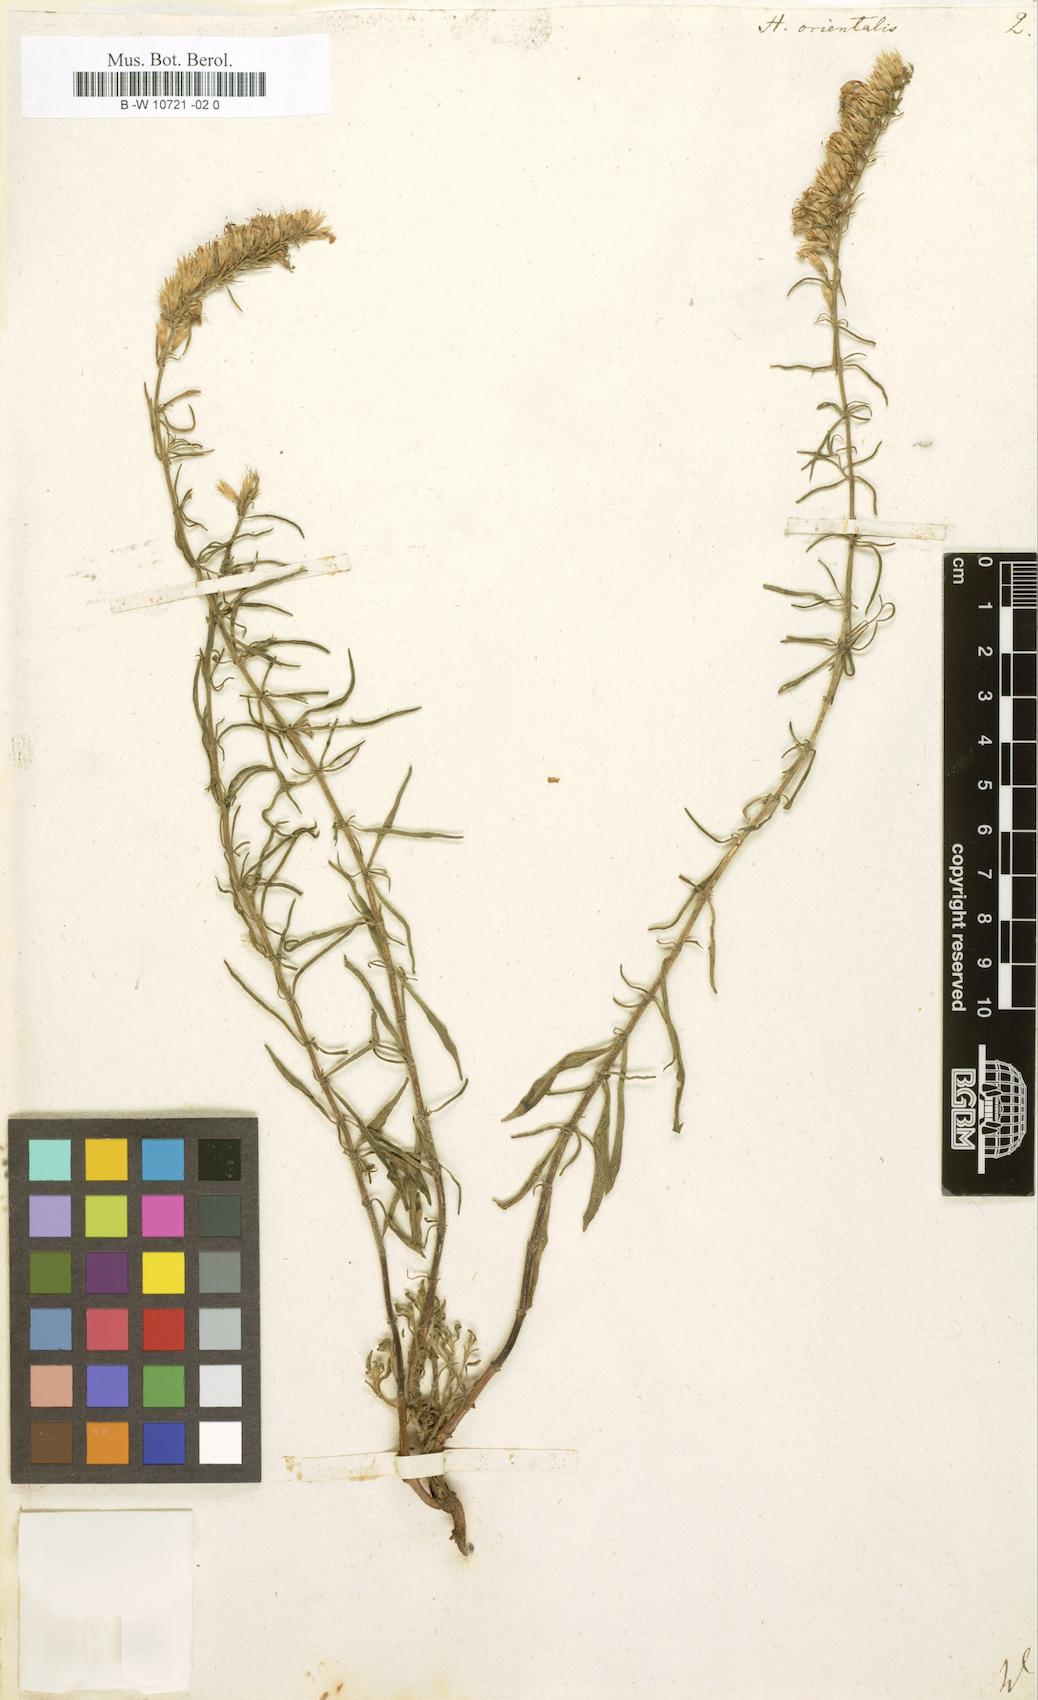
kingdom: Plantae
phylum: Tracheophyta
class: Magnoliopsida
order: Lamiales
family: Lamiaceae
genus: Hyssopus
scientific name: Hyssopus officinalis
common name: Hyssop
